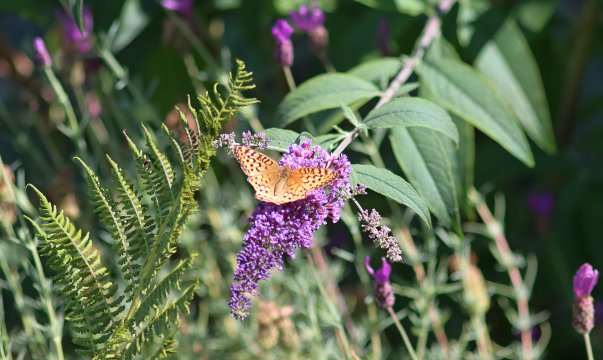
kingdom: Animalia
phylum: Arthropoda
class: Insecta
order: Lepidoptera
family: Nymphalidae
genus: Speyeria
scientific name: Speyeria callippe
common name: Callippe Fritillary
